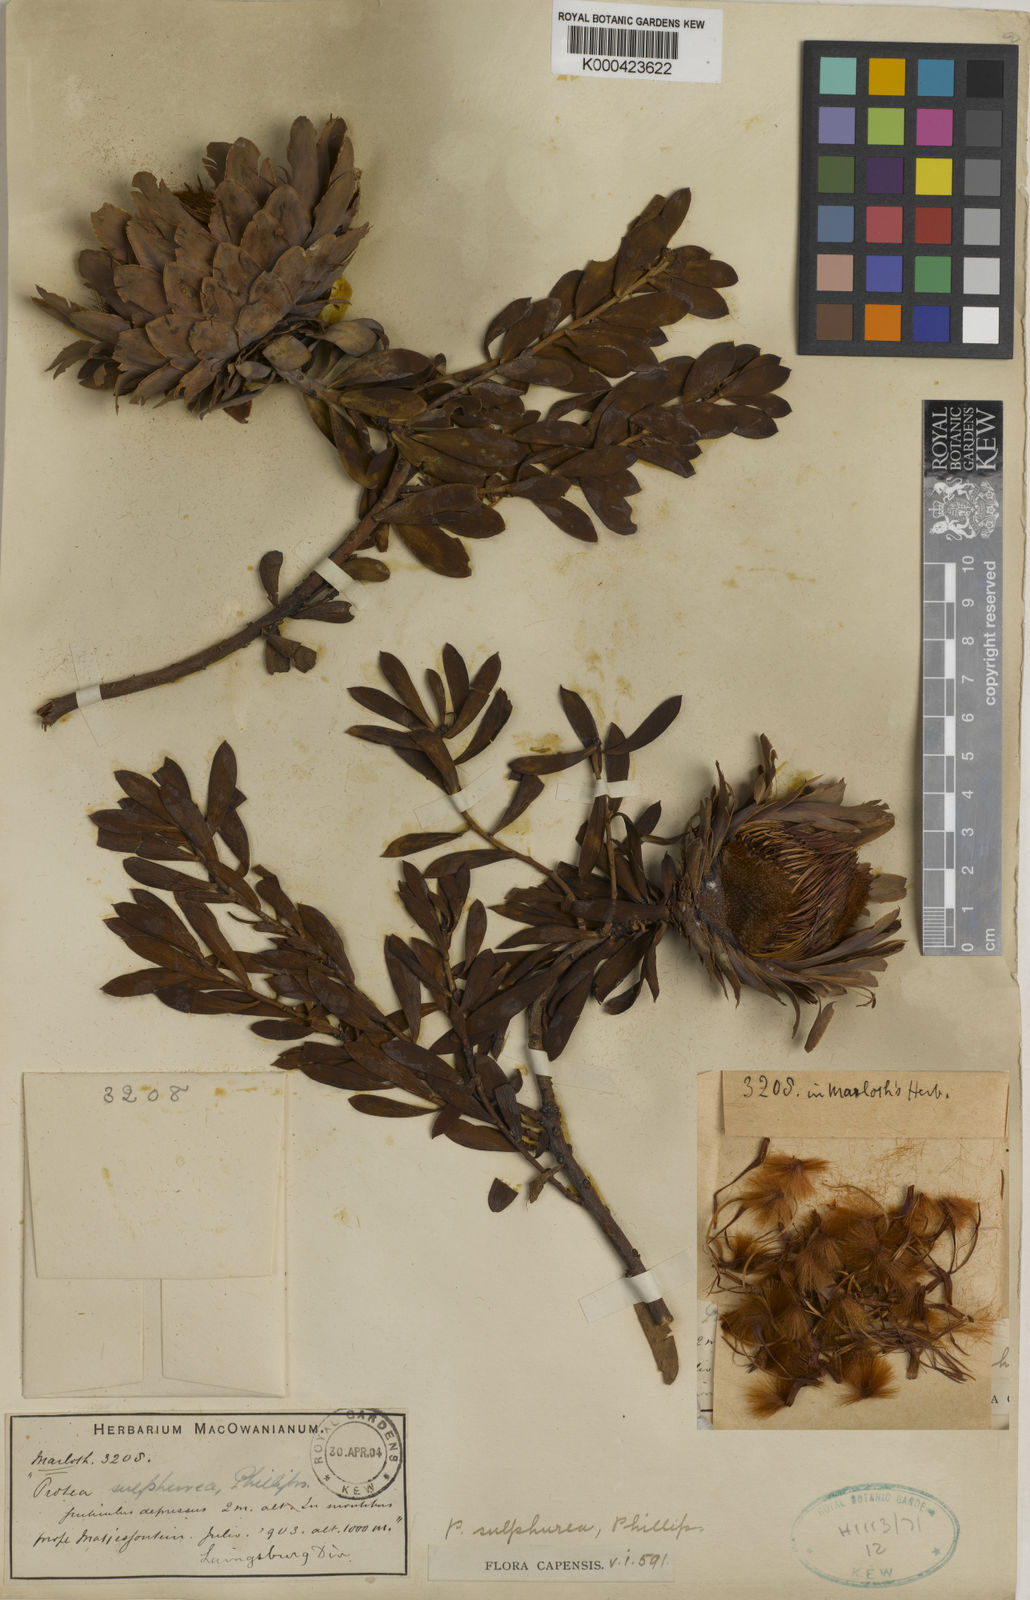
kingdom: Plantae
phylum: Tracheophyta
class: Magnoliopsida
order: Proteales
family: Proteaceae
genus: Protea
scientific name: Protea sulphurea
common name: Sulphur sugarbush
